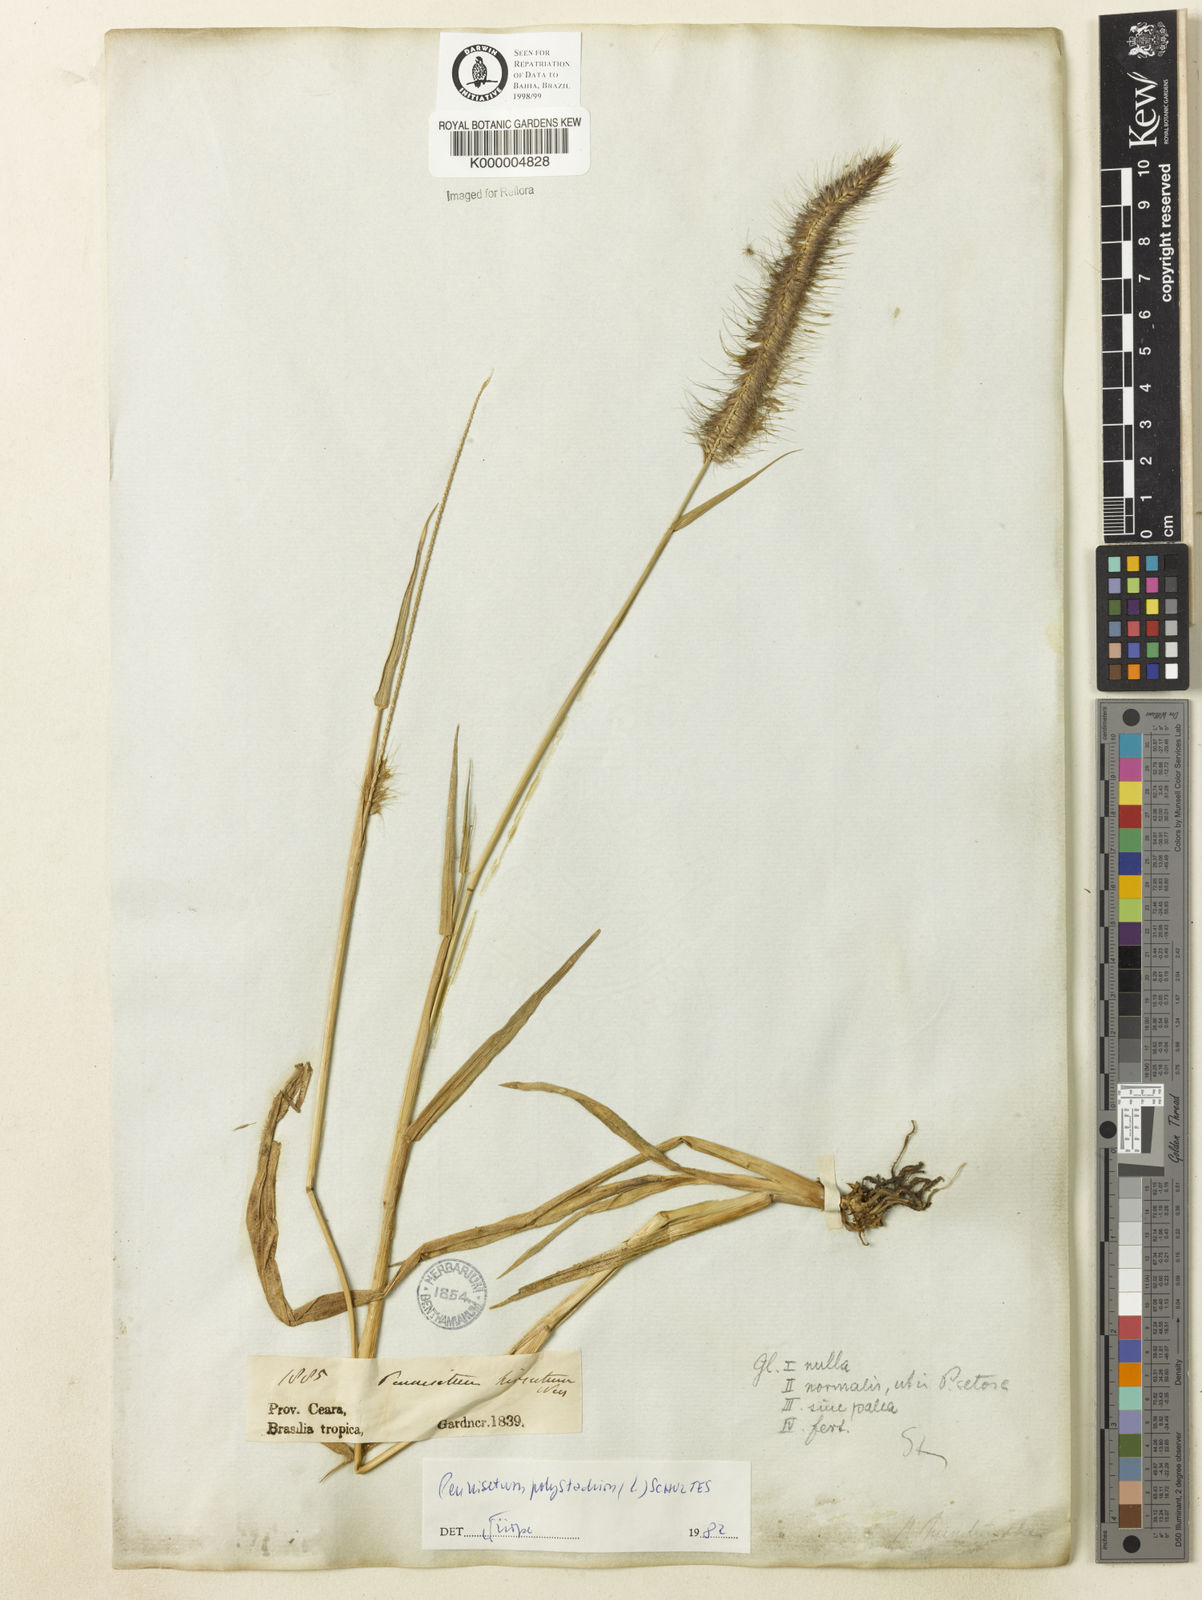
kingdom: Plantae
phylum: Tracheophyta
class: Liliopsida
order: Poales
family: Poaceae
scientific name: Poaceae
